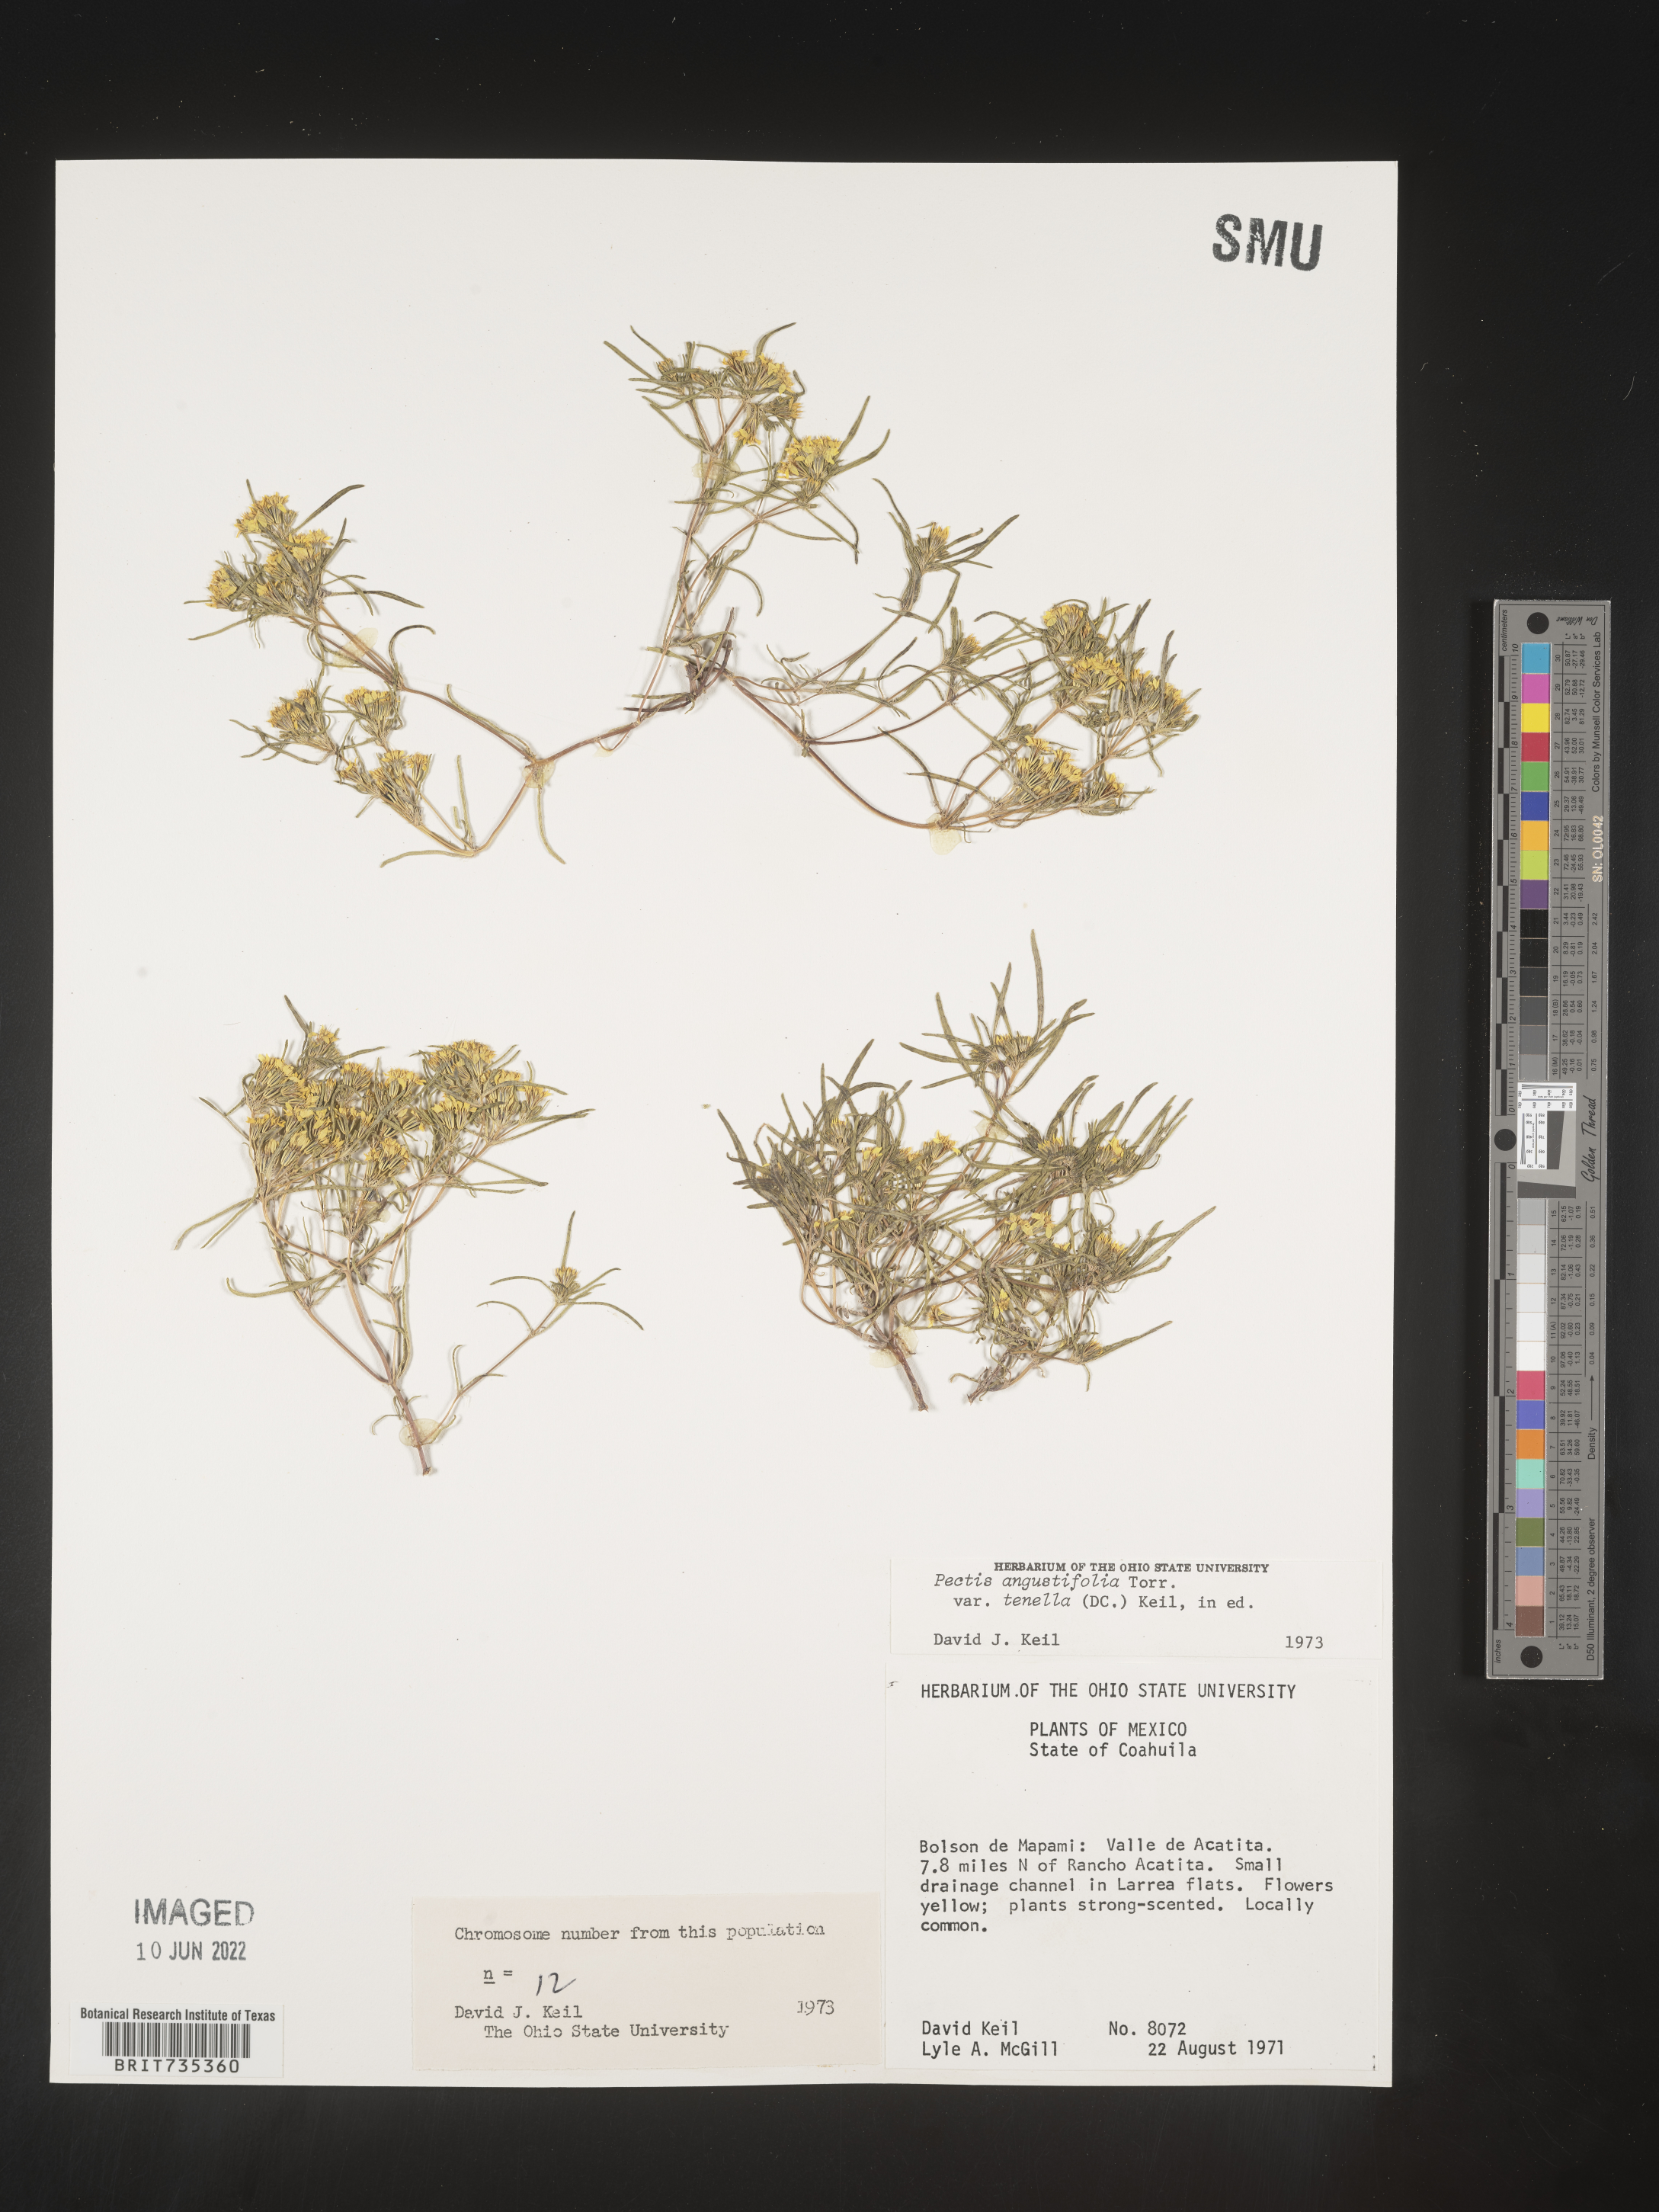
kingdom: Plantae
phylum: Tracheophyta
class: Magnoliopsida
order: Asterales
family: Asteraceae
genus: Pectis
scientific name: Pectis
